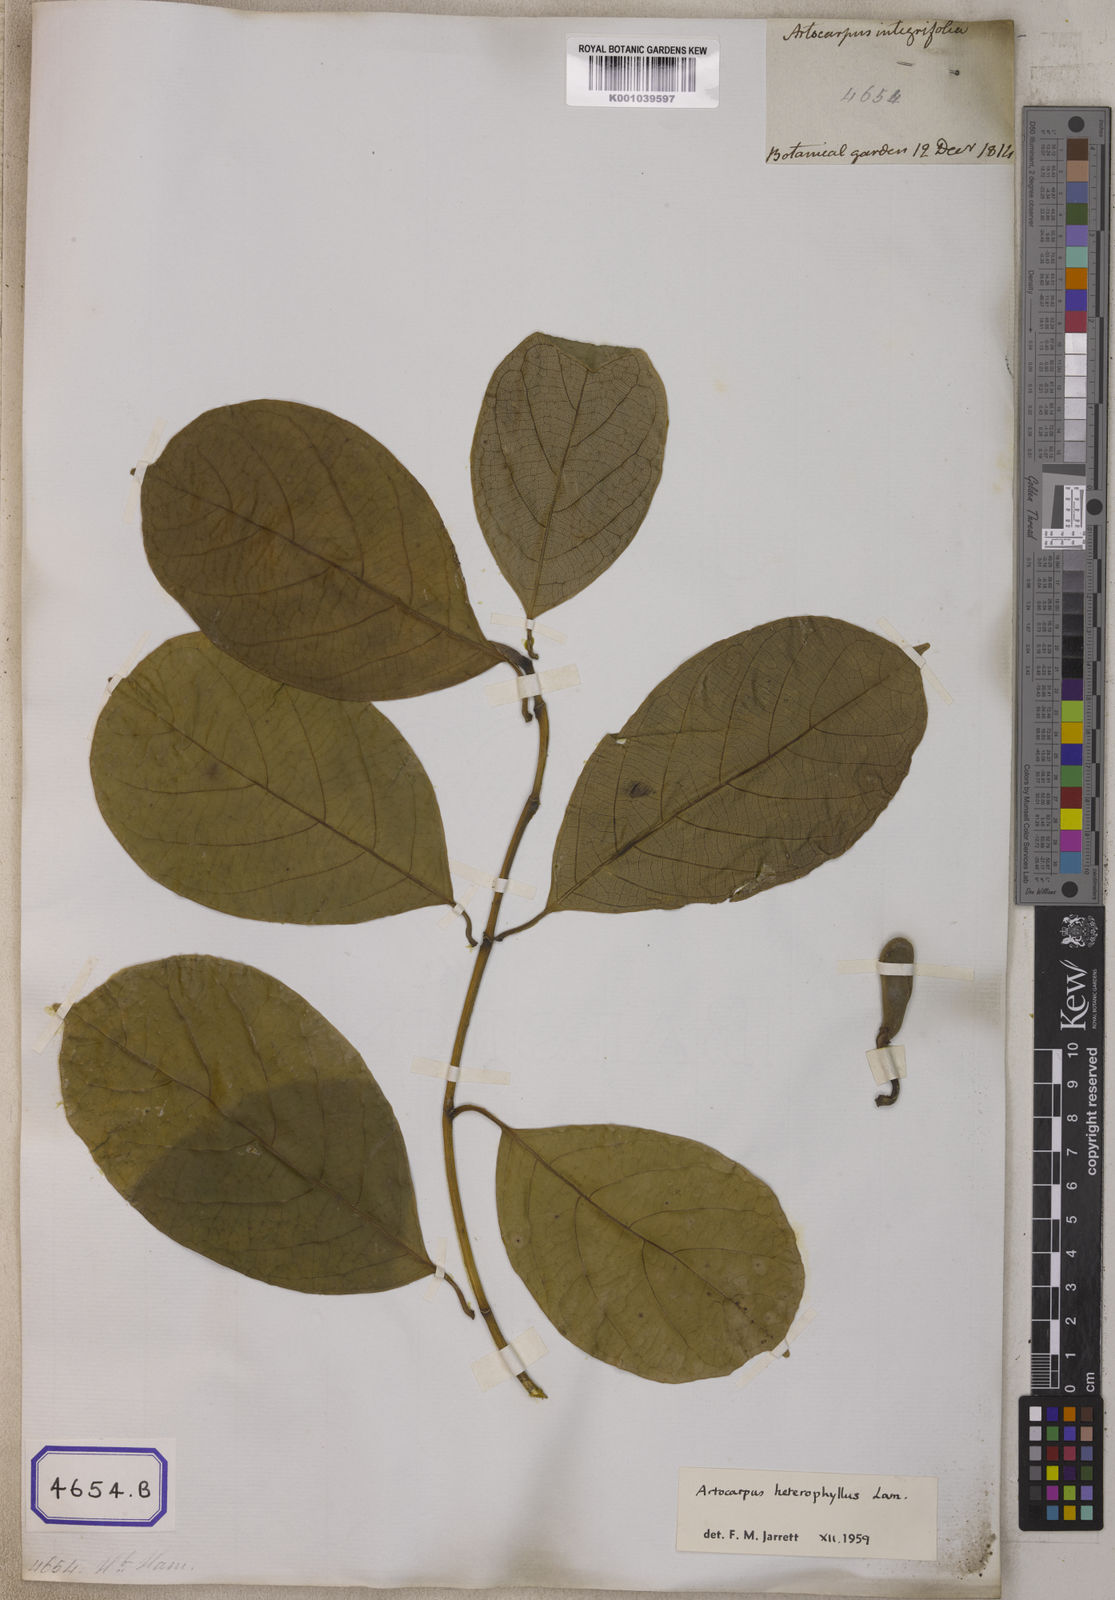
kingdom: Plantae
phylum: Tracheophyta
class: Magnoliopsida
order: Rosales
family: Moraceae
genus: Artocarpus
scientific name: Artocarpus integer
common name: Chempedak
